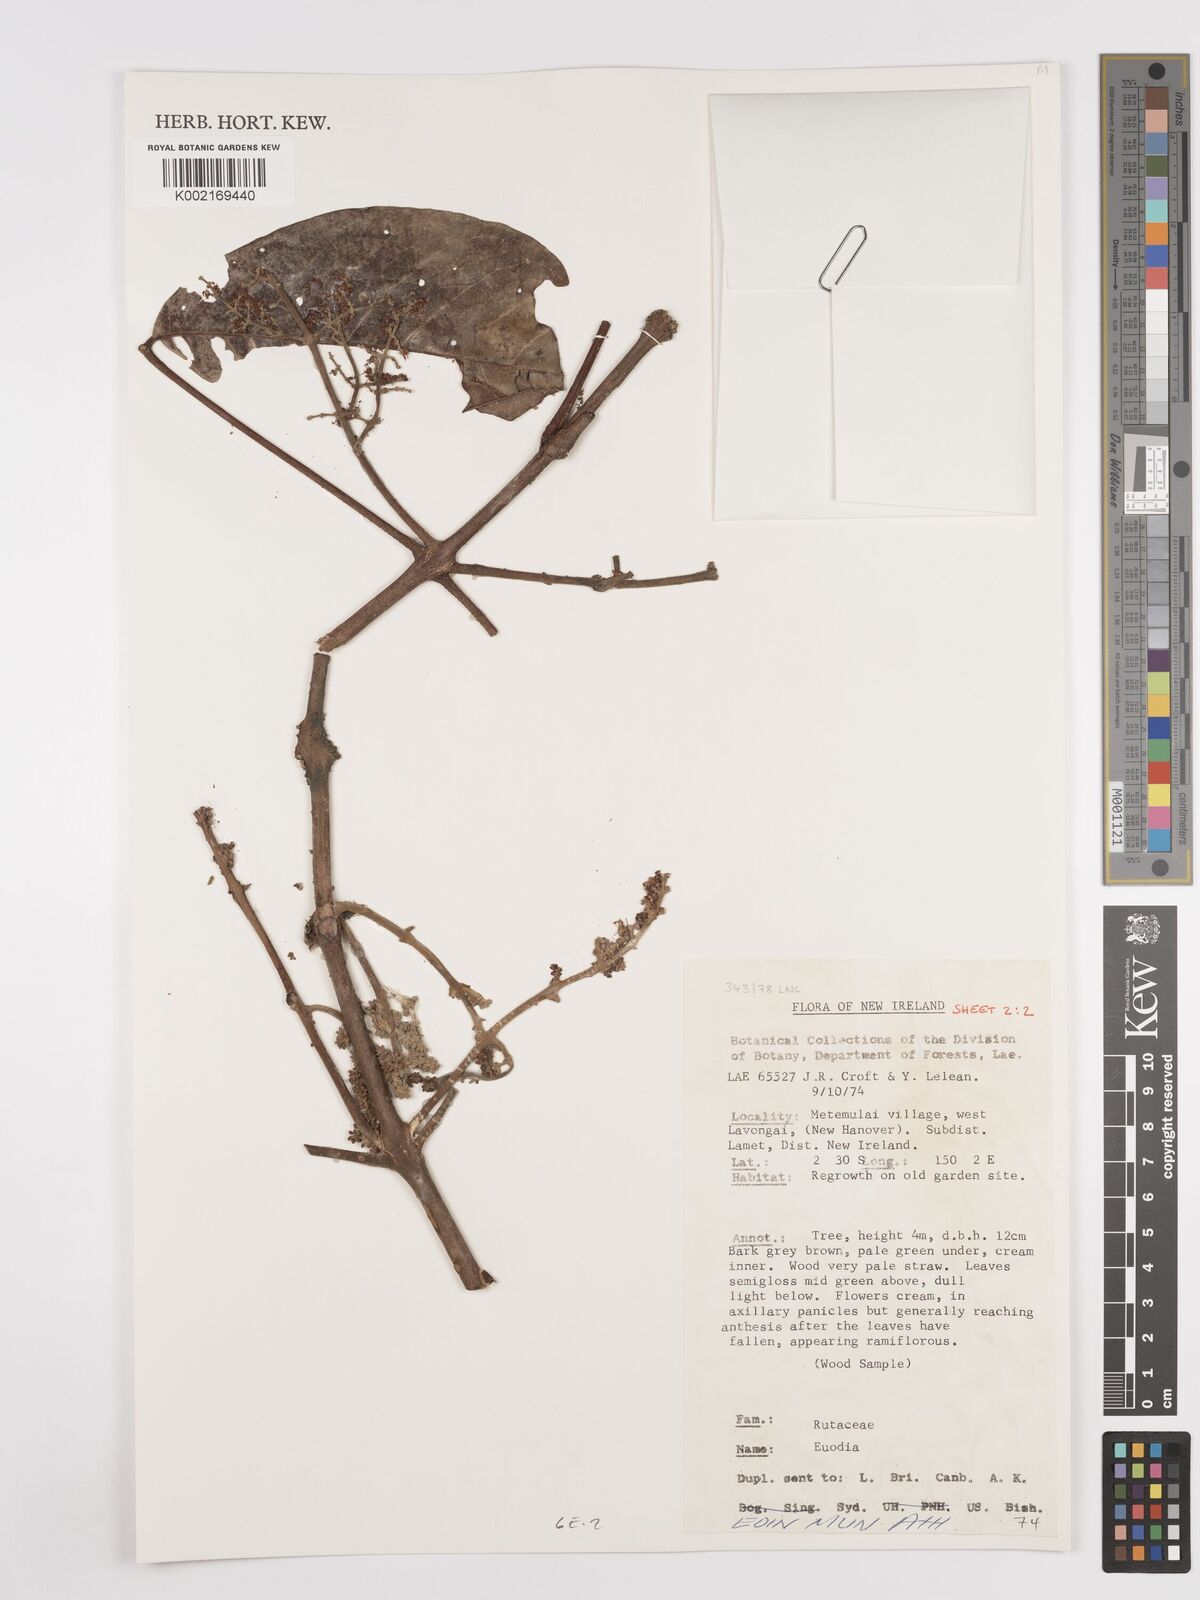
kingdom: Plantae
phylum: Tracheophyta
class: Magnoliopsida
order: Sapindales
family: Rutaceae
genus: Euodia
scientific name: Euodia
